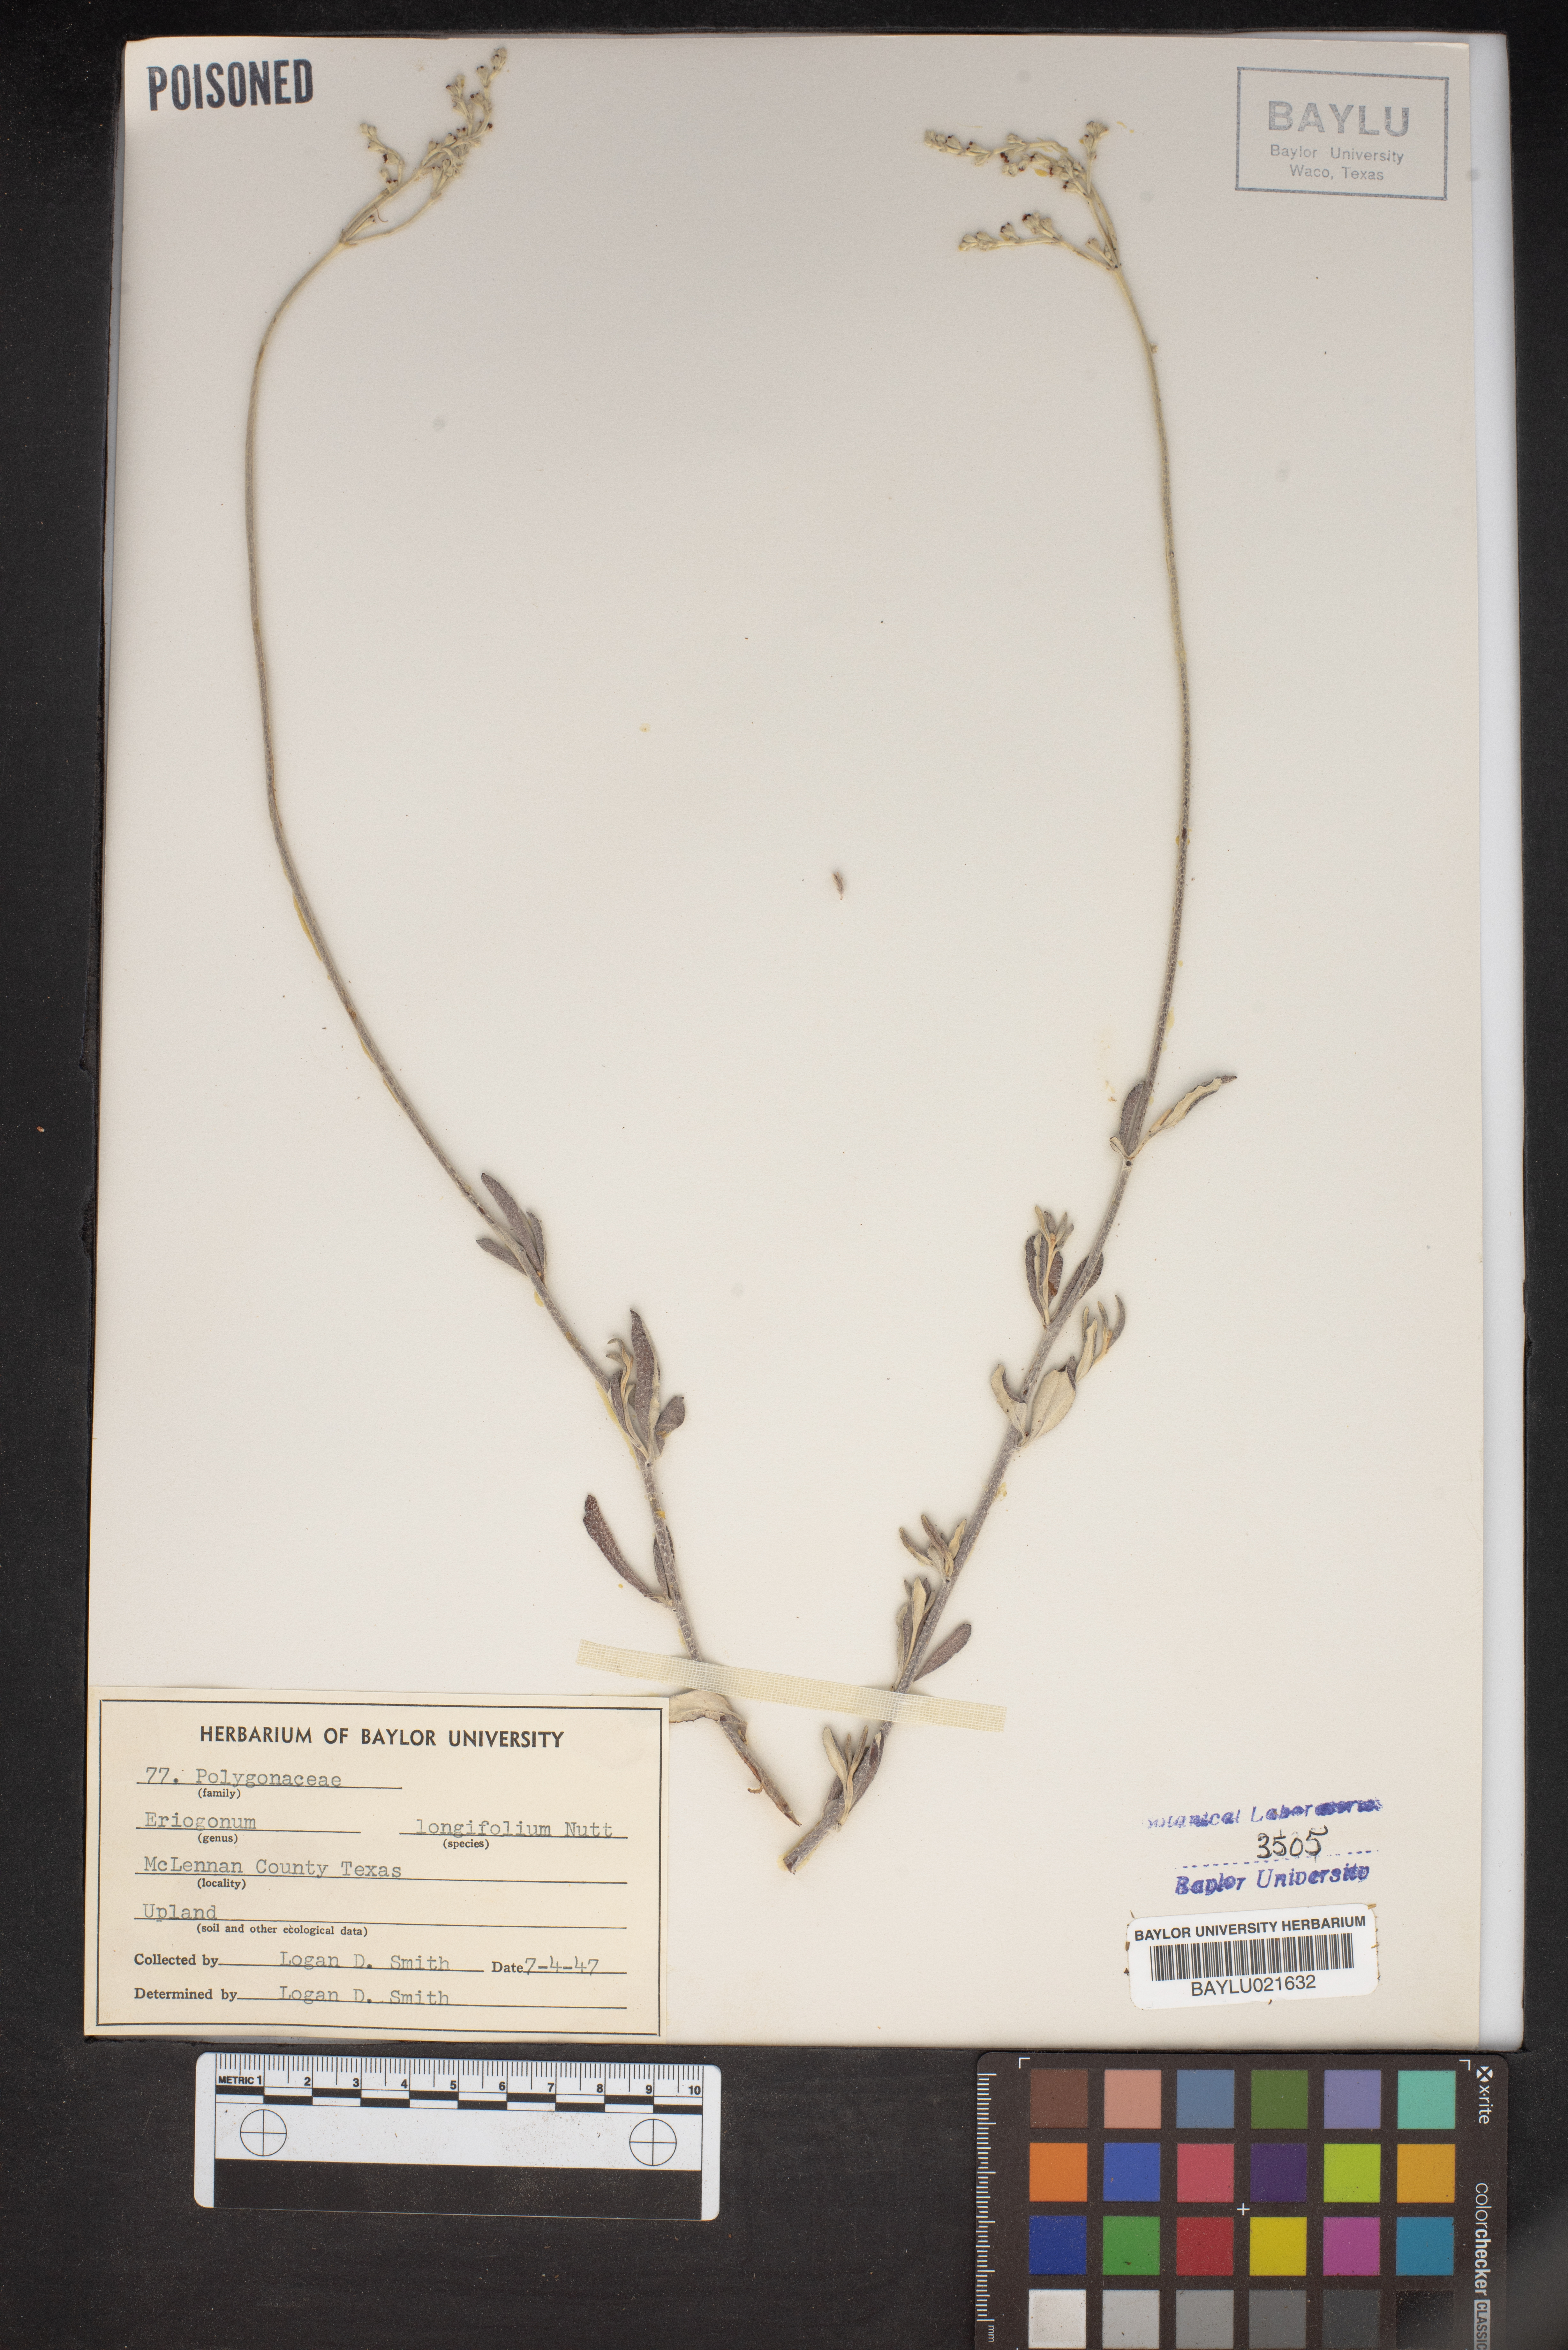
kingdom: Plantae
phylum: Tracheophyta
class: Magnoliopsida
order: Caryophyllales
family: Polygonaceae
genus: Eriogonum
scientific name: Eriogonum longifolium
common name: Longleaf wild buckwheat
